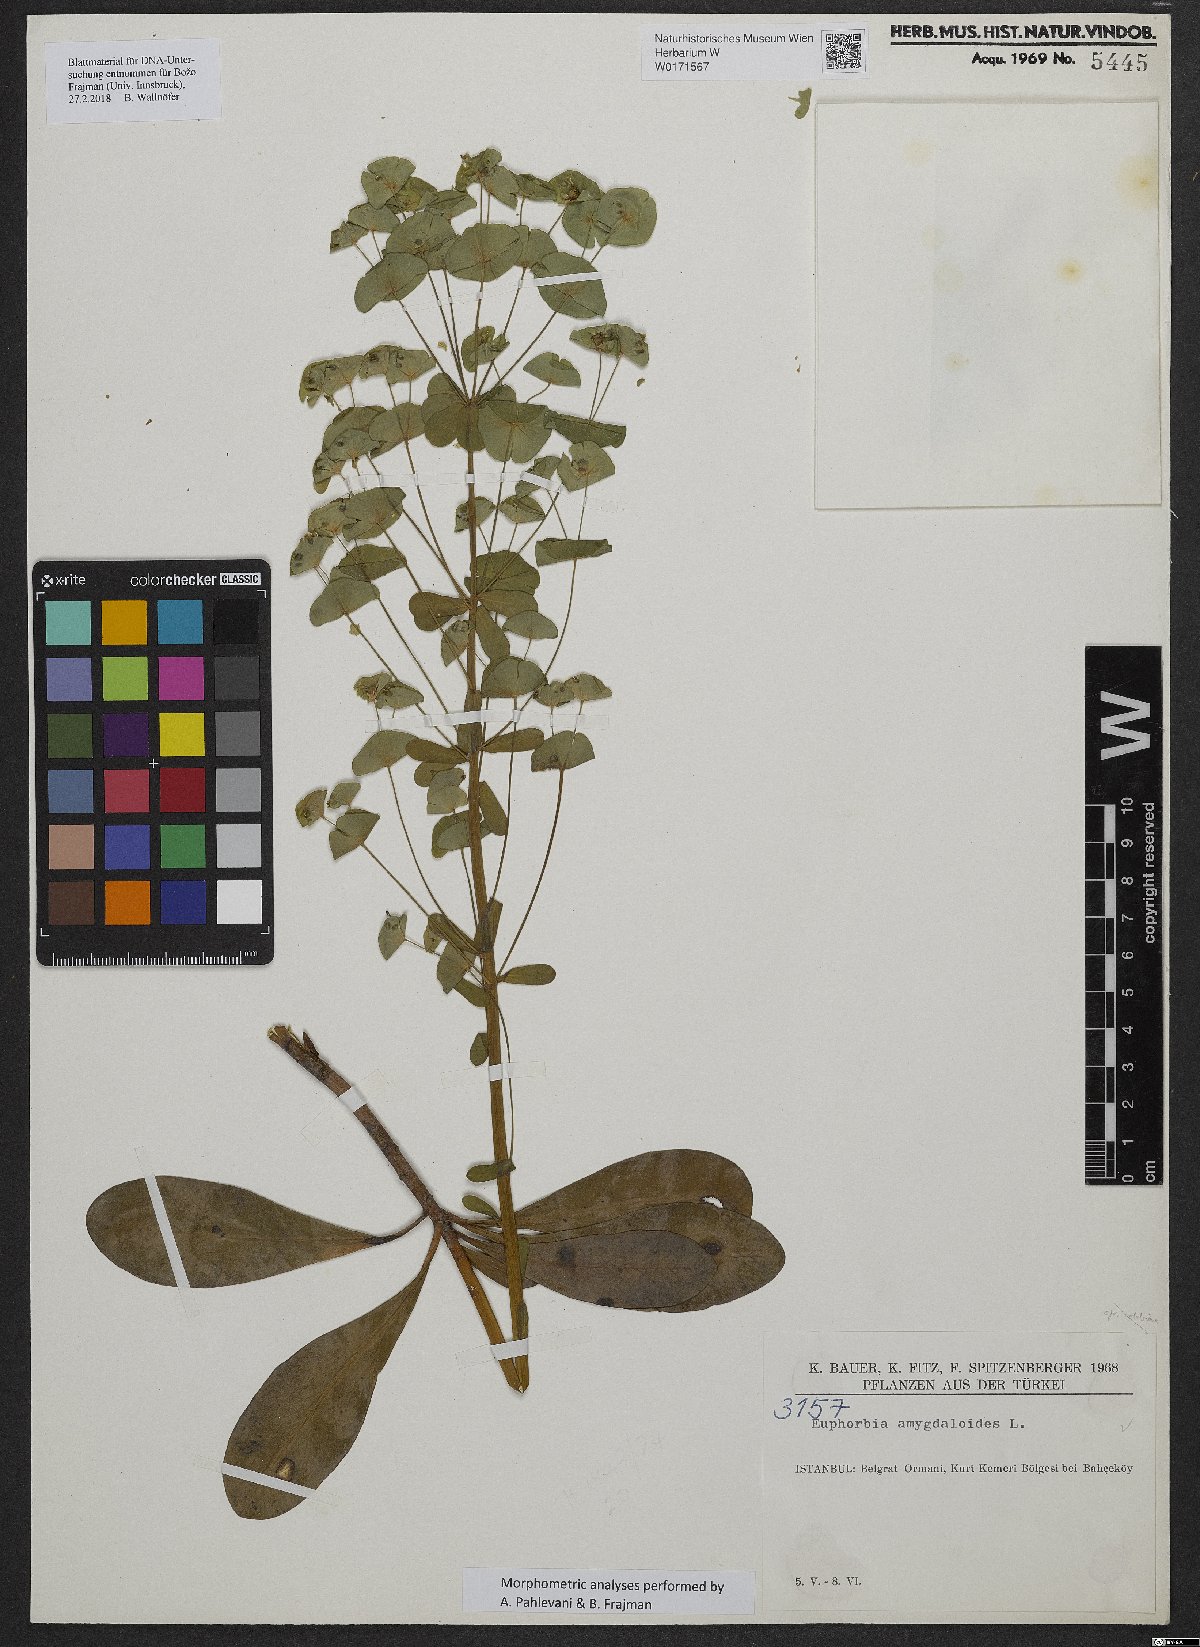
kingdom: Plantae
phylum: Tracheophyta
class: Magnoliopsida
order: Malpighiales
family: Euphorbiaceae
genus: Euphorbia
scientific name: Euphorbia amygdaloides
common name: Wood spurge
